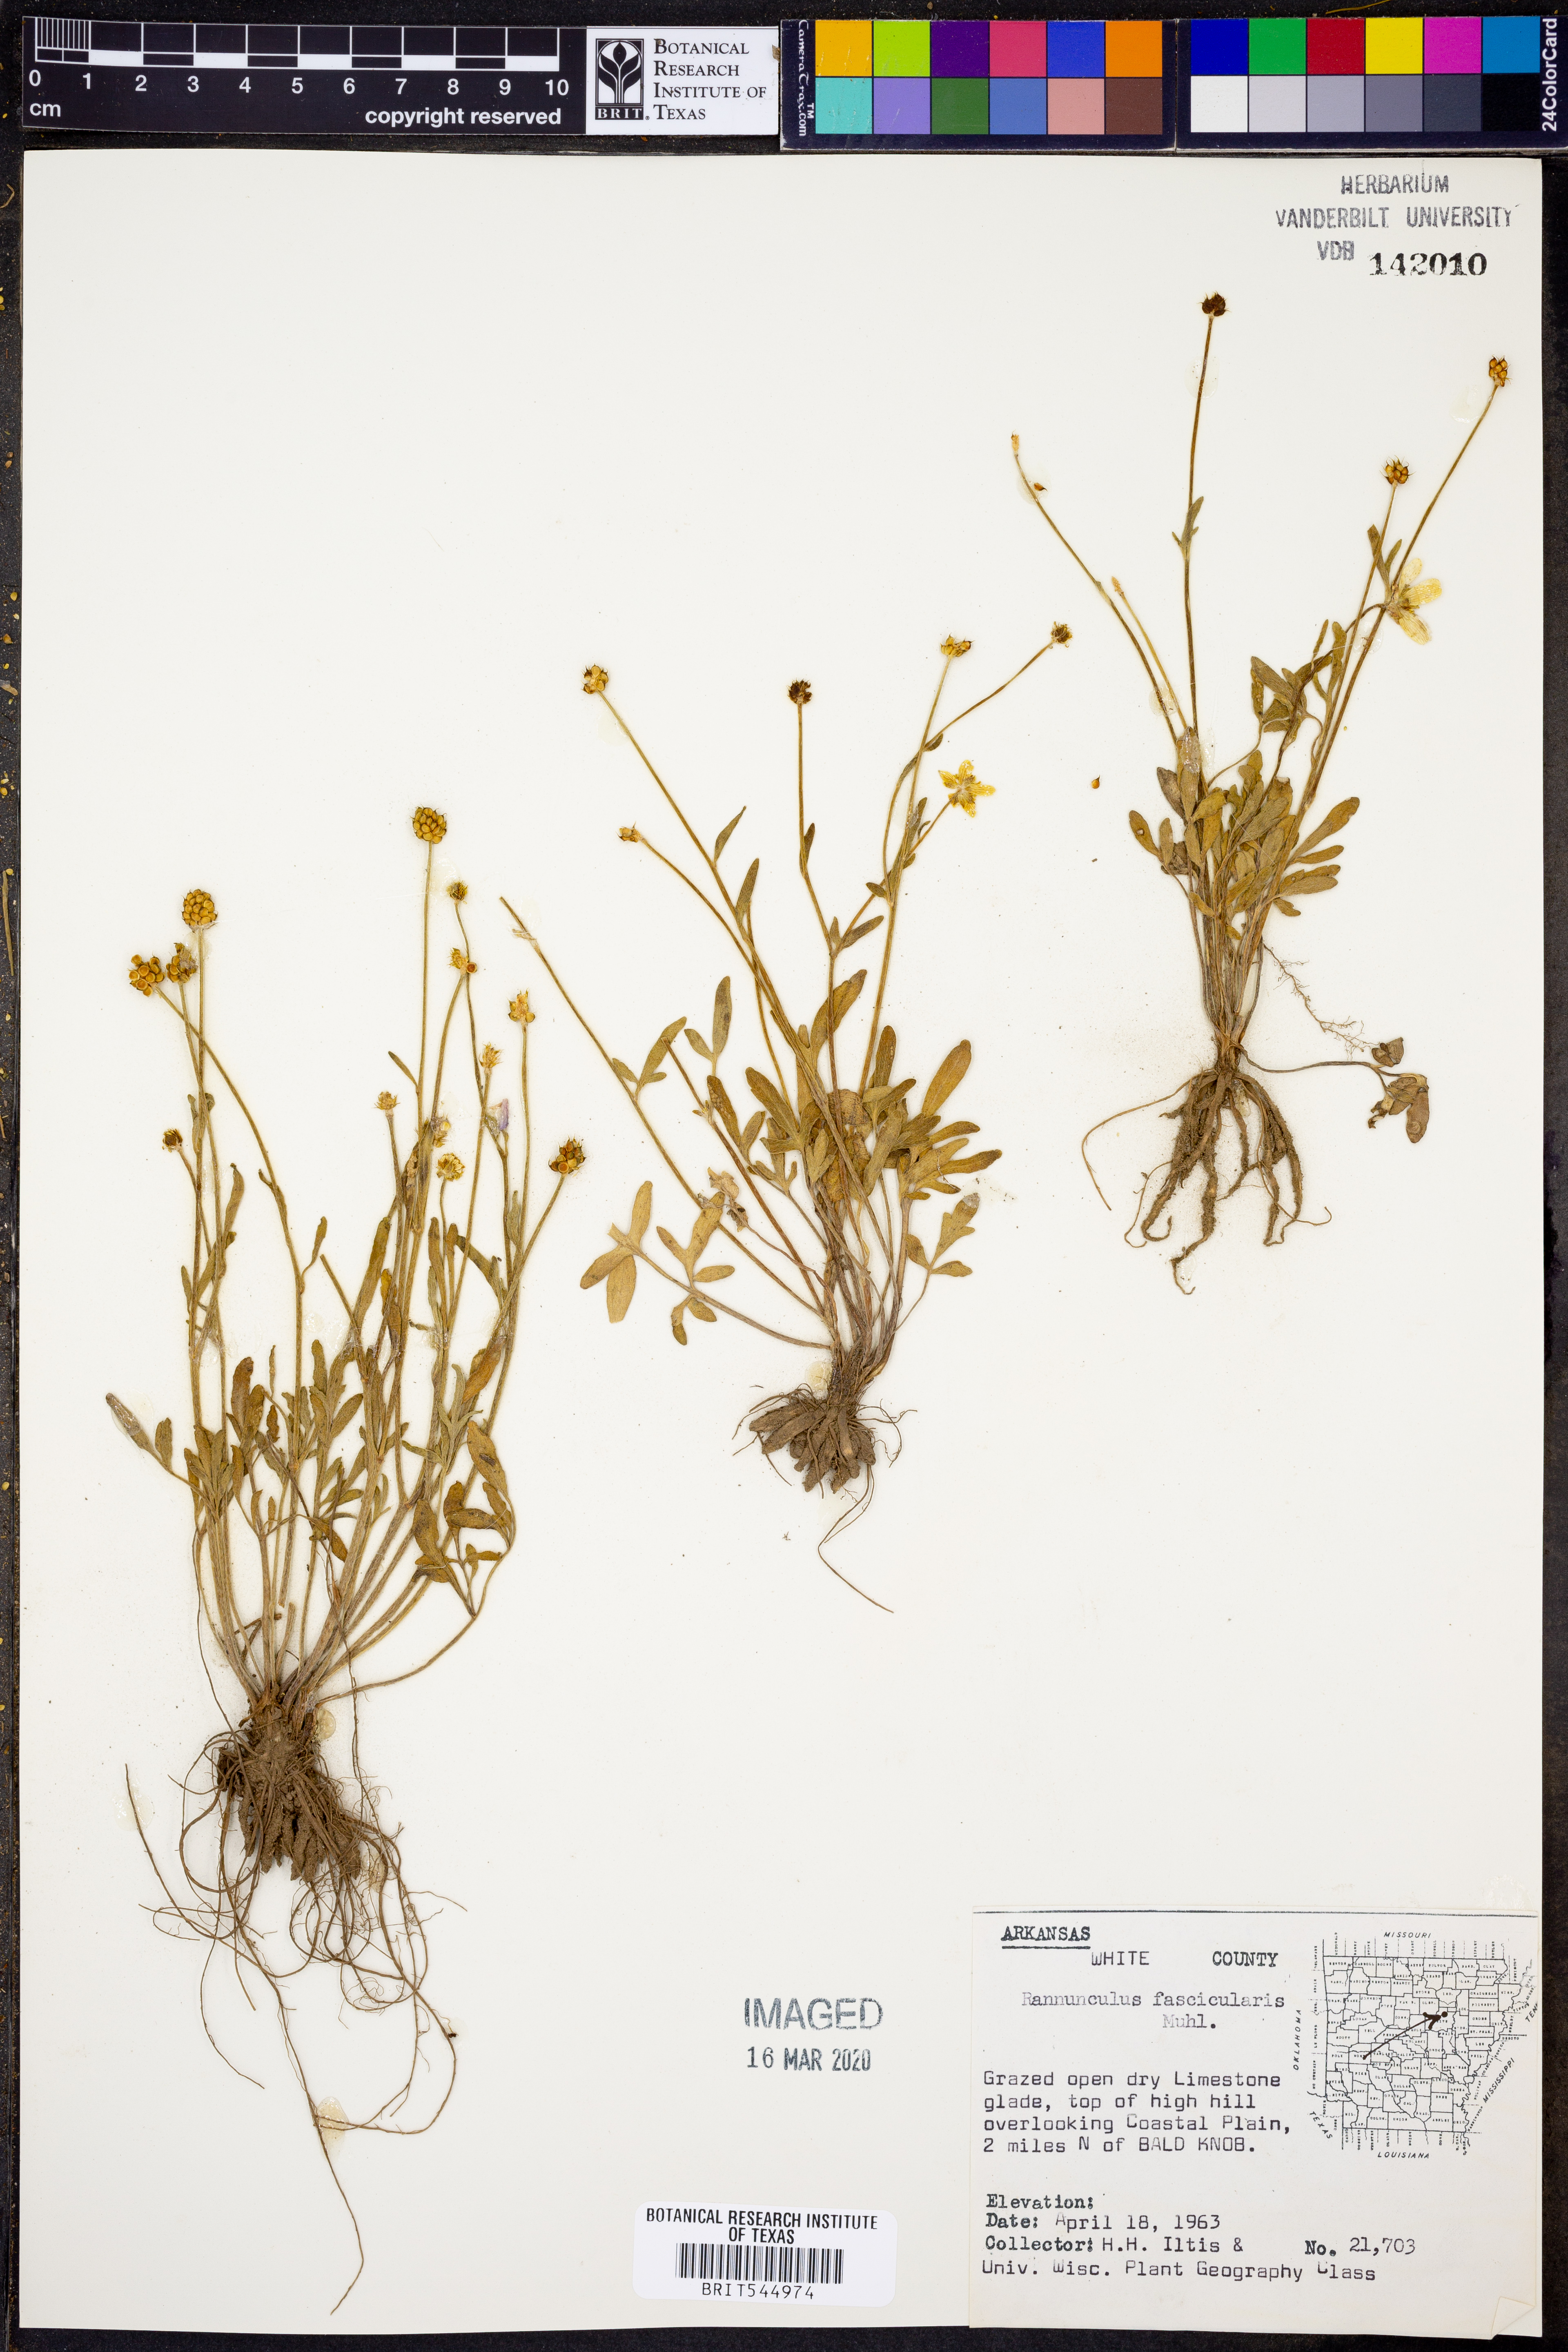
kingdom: Plantae
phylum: Tracheophyta
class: Magnoliopsida
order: Ranunculales
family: Ranunculaceae
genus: Ranunculus
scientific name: Ranunculus fascicularis
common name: Early buttercup
